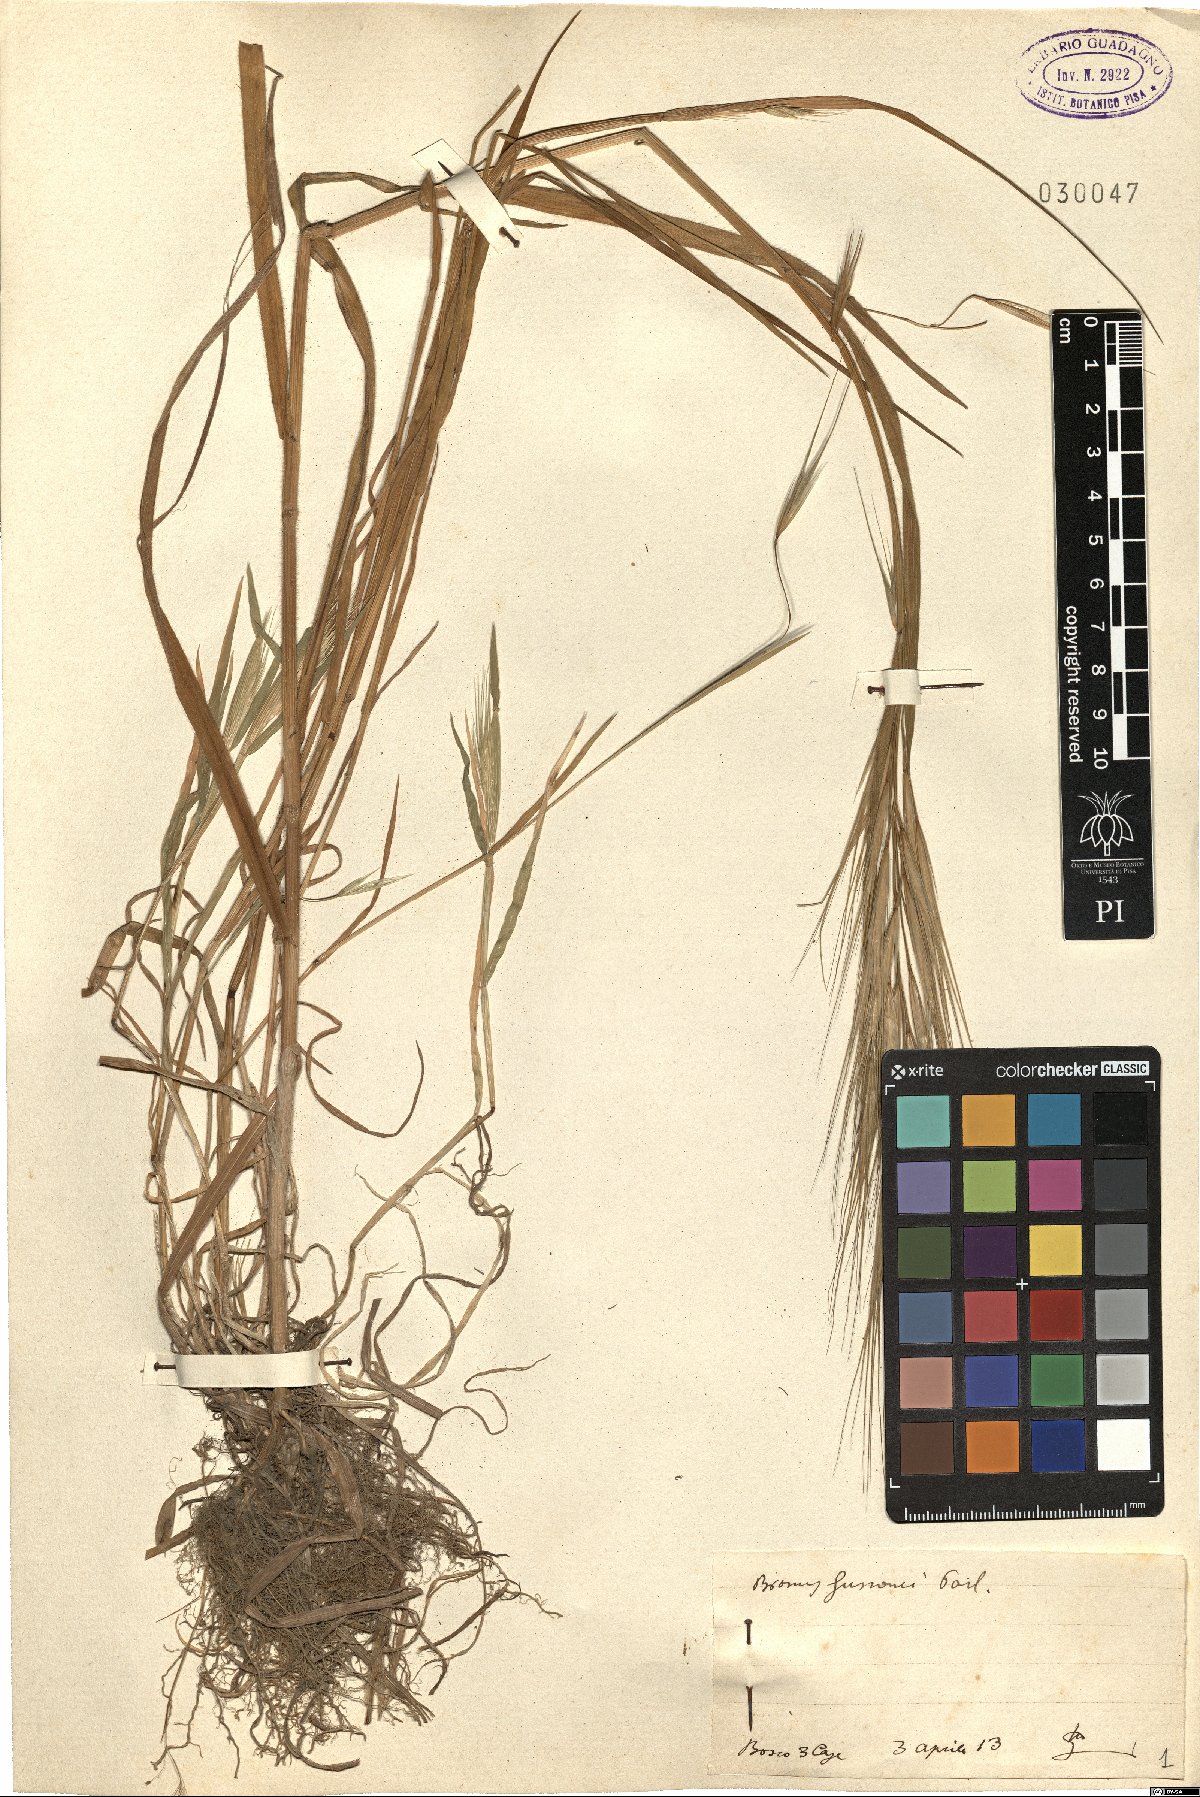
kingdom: Plantae
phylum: Tracheophyta
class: Liliopsida
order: Poales
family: Poaceae
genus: Bromus
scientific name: Bromus diandrus
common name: Ripgut brome
